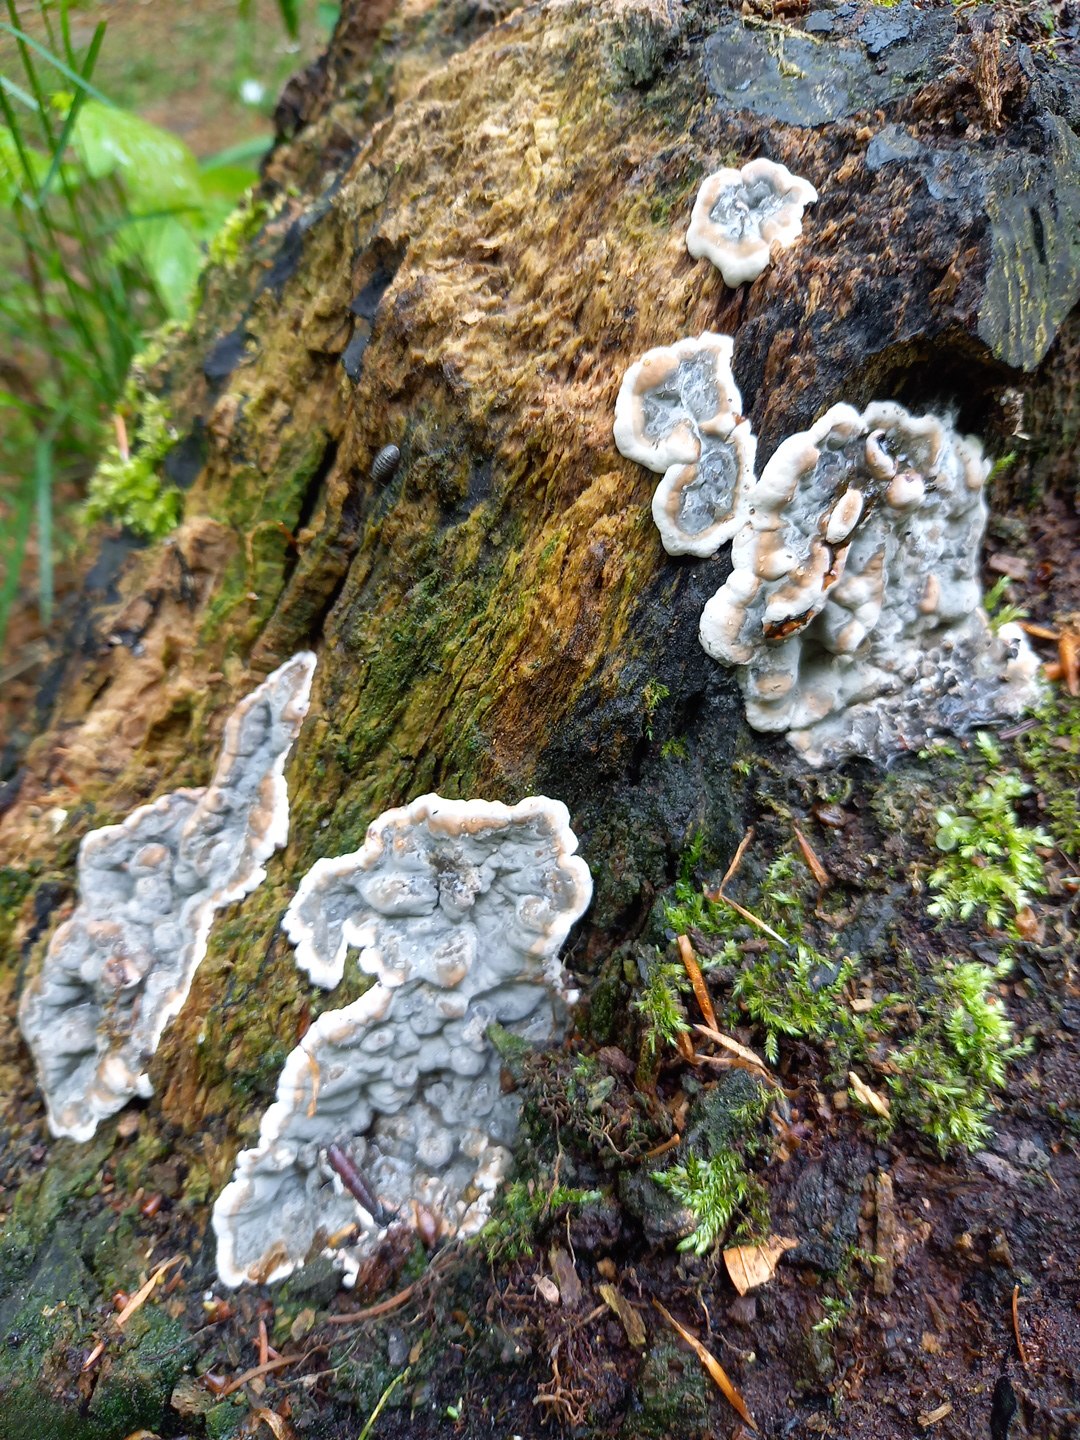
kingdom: Fungi
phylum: Ascomycota
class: Sordariomycetes
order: Xylariales
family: Xylariaceae
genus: Kretzschmaria
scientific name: Kretzschmaria deusta
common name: stor kulsvamp
